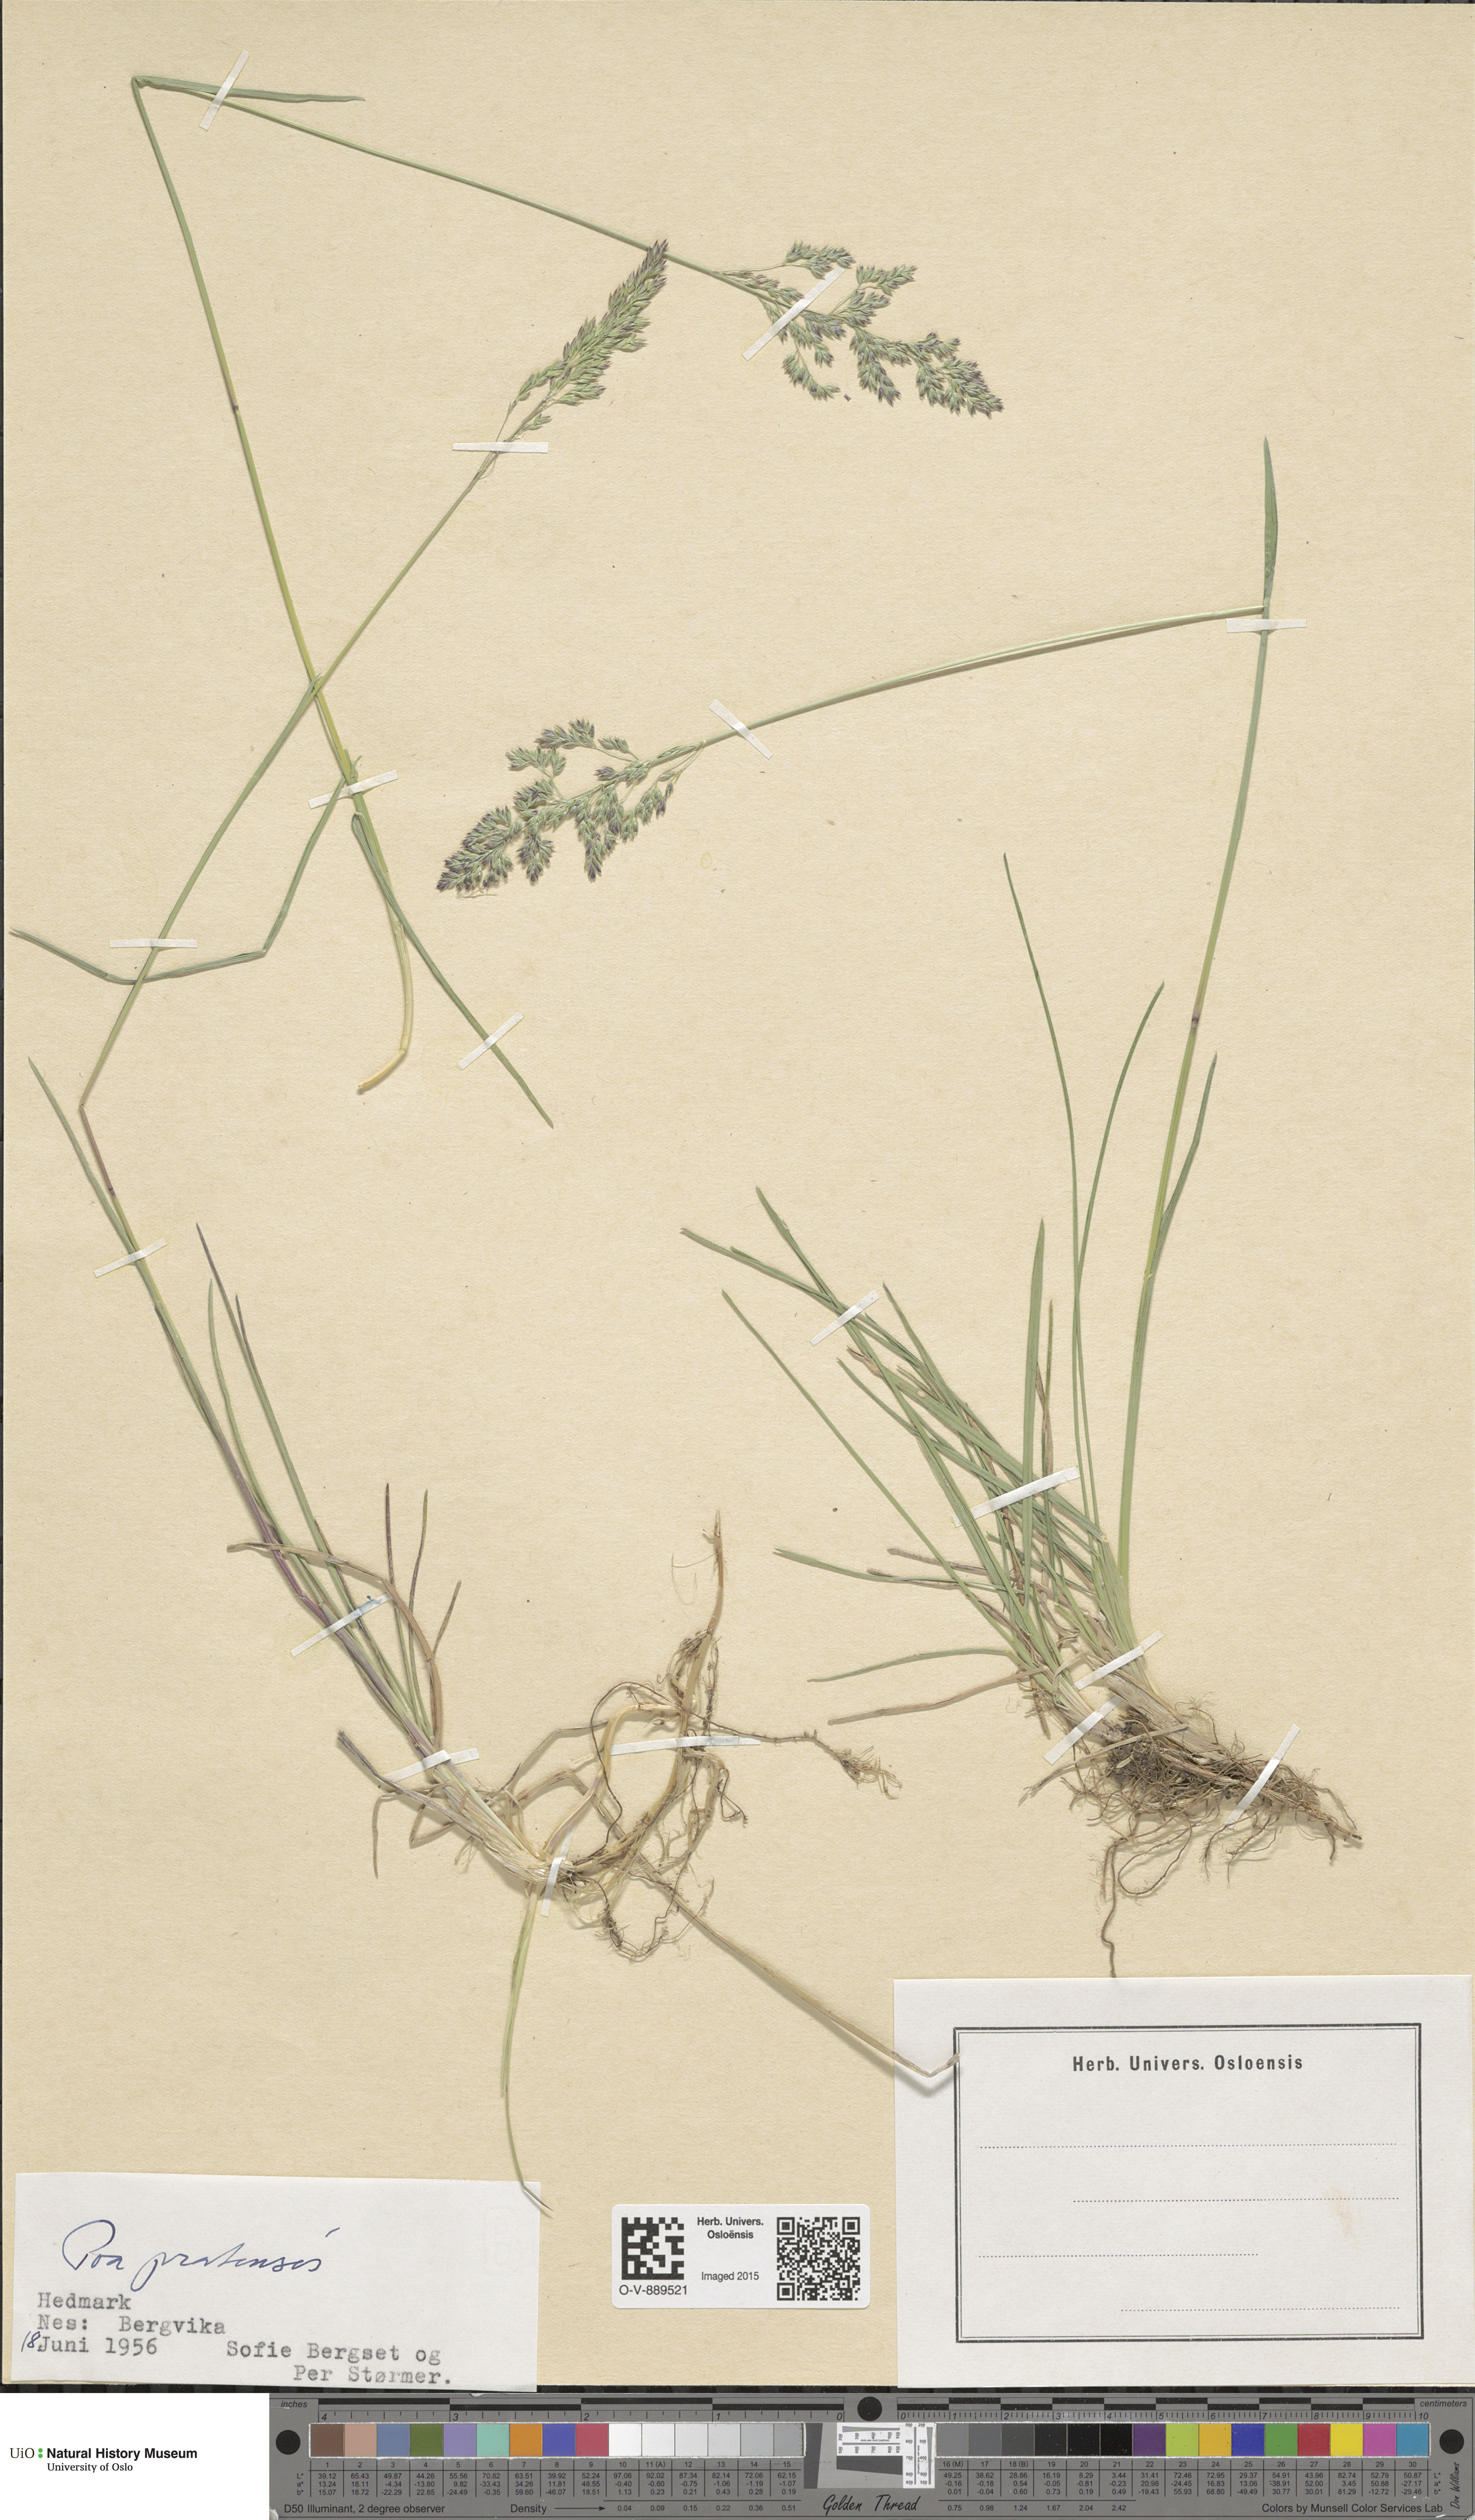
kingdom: Plantae
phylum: Tracheophyta
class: Liliopsida
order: Poales
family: Poaceae
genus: Poa
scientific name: Poa pratensis
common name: Kentucky bluegrass
